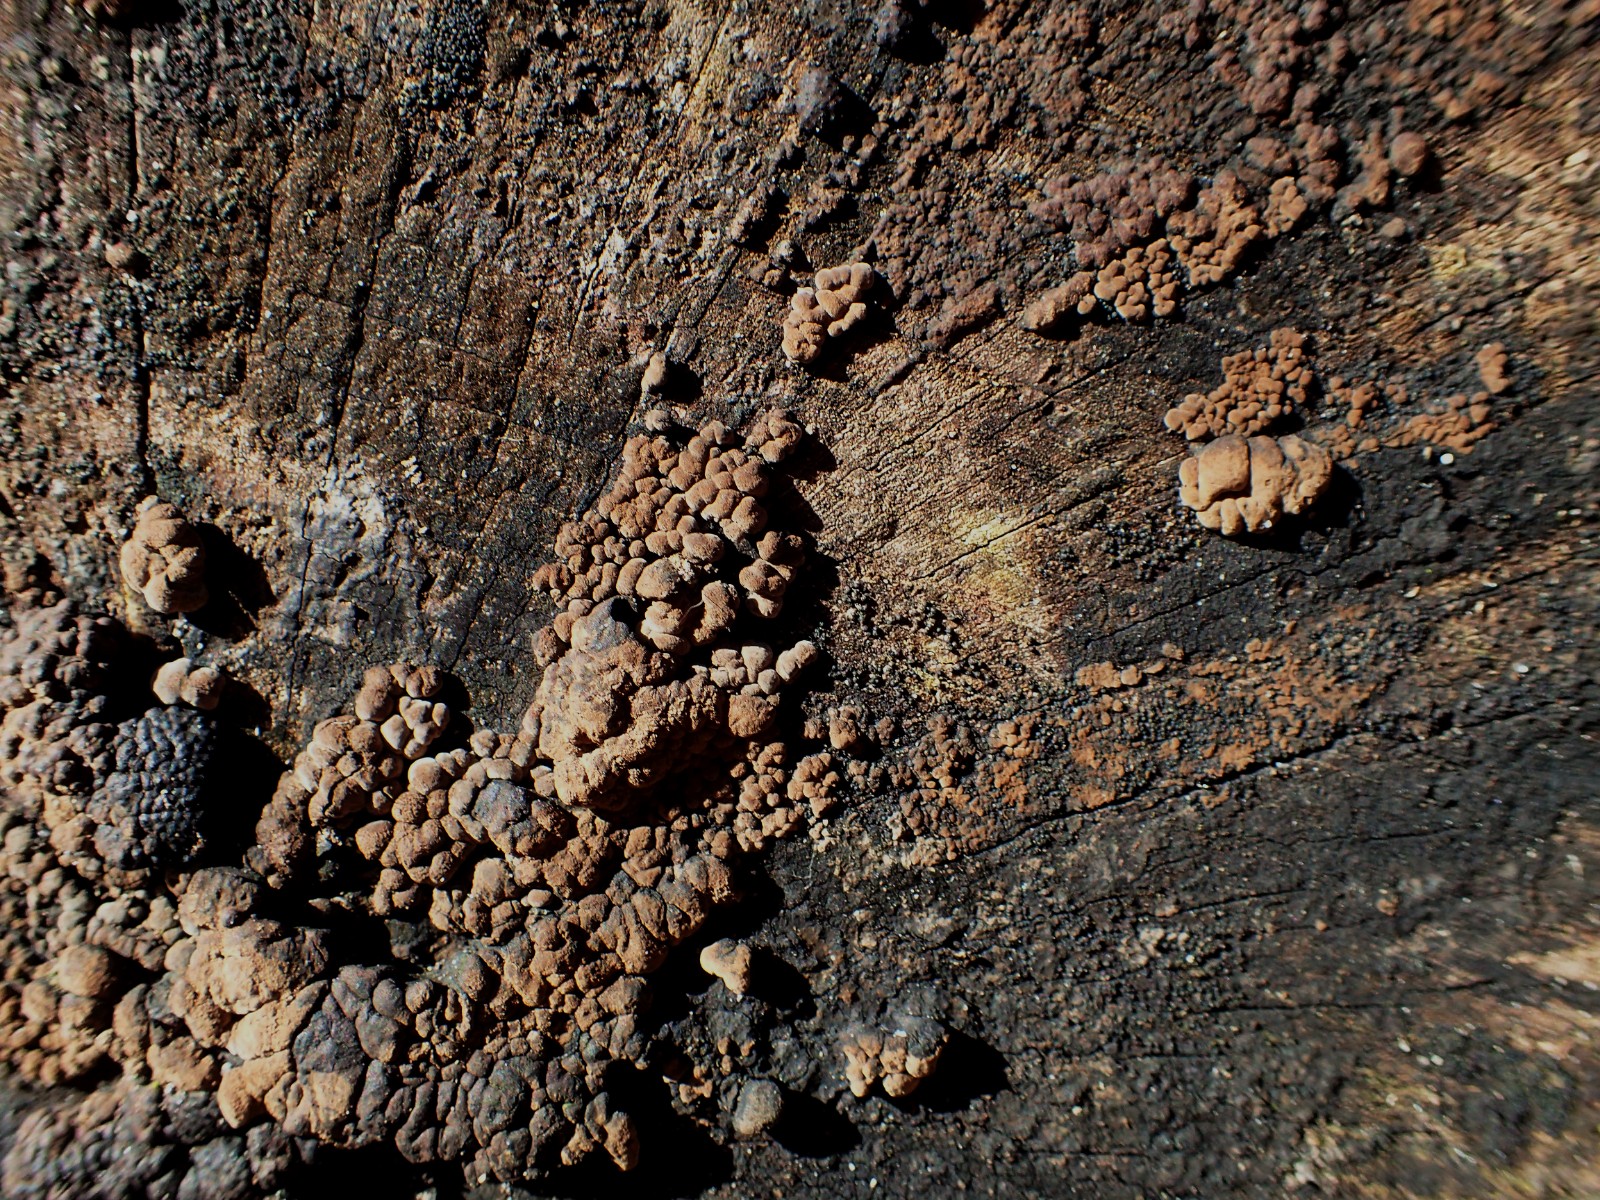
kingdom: Fungi
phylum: Ascomycota
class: Sordariomycetes
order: Xylariales
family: Hypoxylaceae
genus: Hypoxylon
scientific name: Hypoxylon fragiforme
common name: kuljordbær
